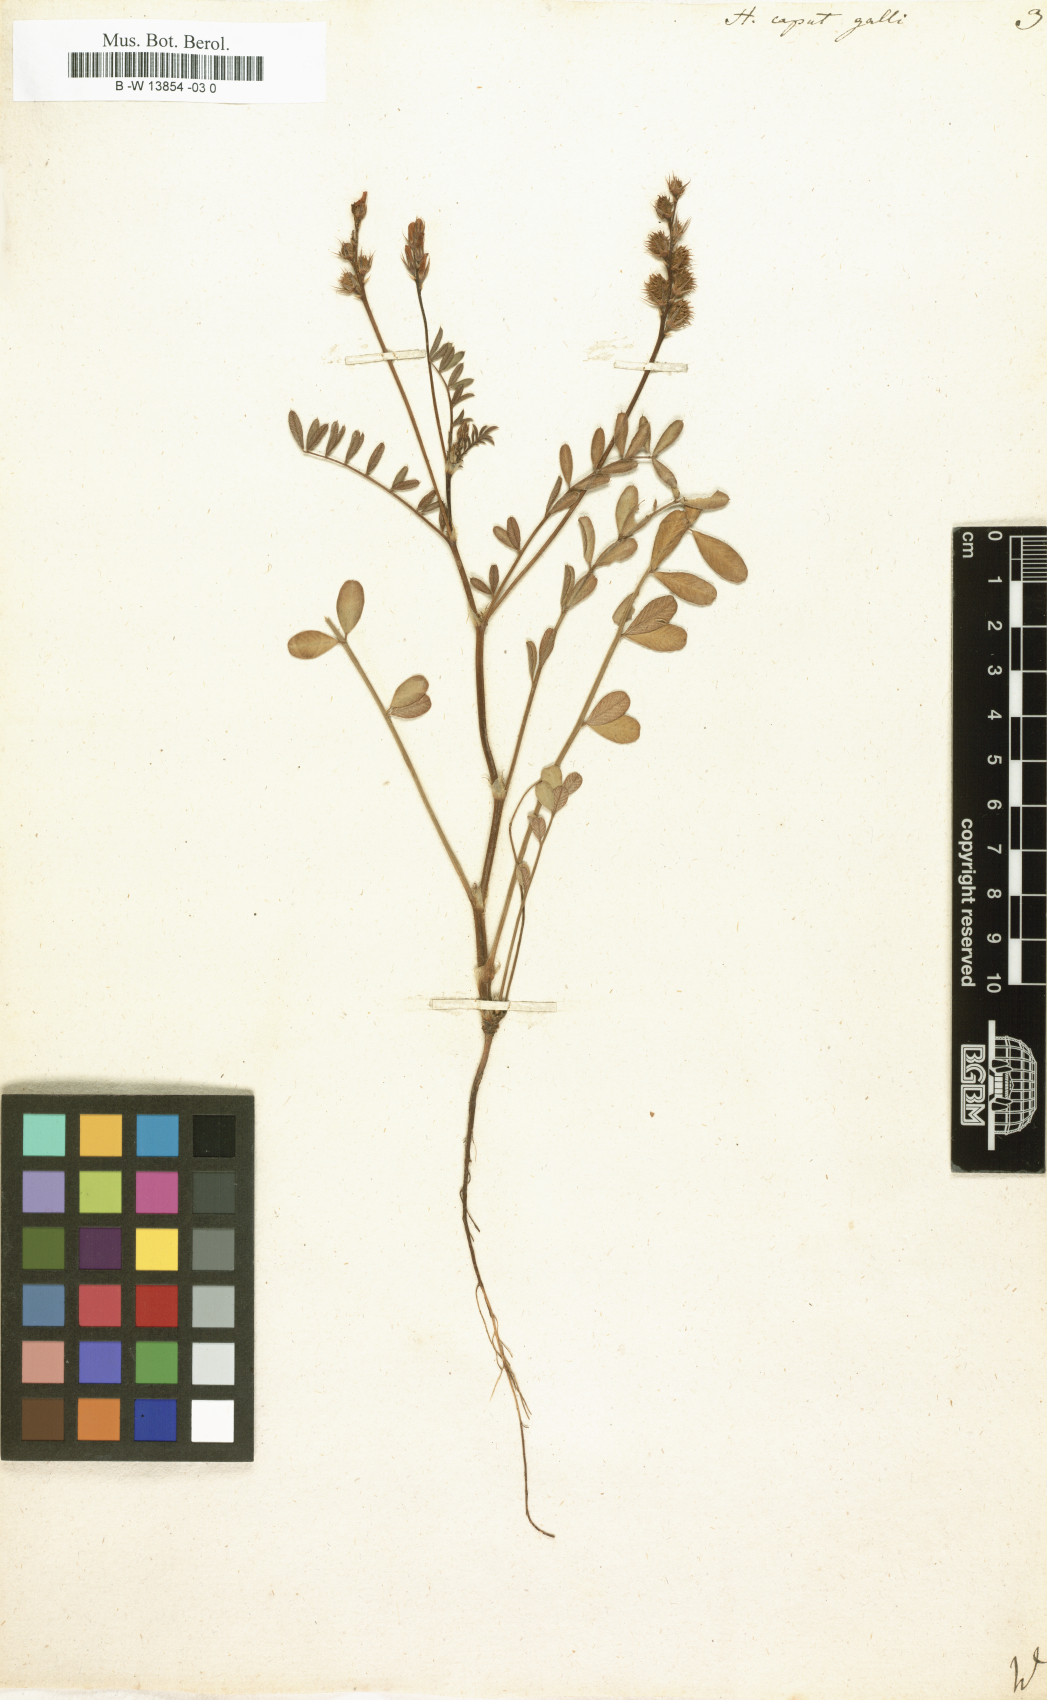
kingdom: Plantae
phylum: Tracheophyta
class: Magnoliopsida
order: Fabales
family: Fabaceae
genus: Onobrychis
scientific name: Onobrychis caput-galli
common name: Cockscomb sainfoin
